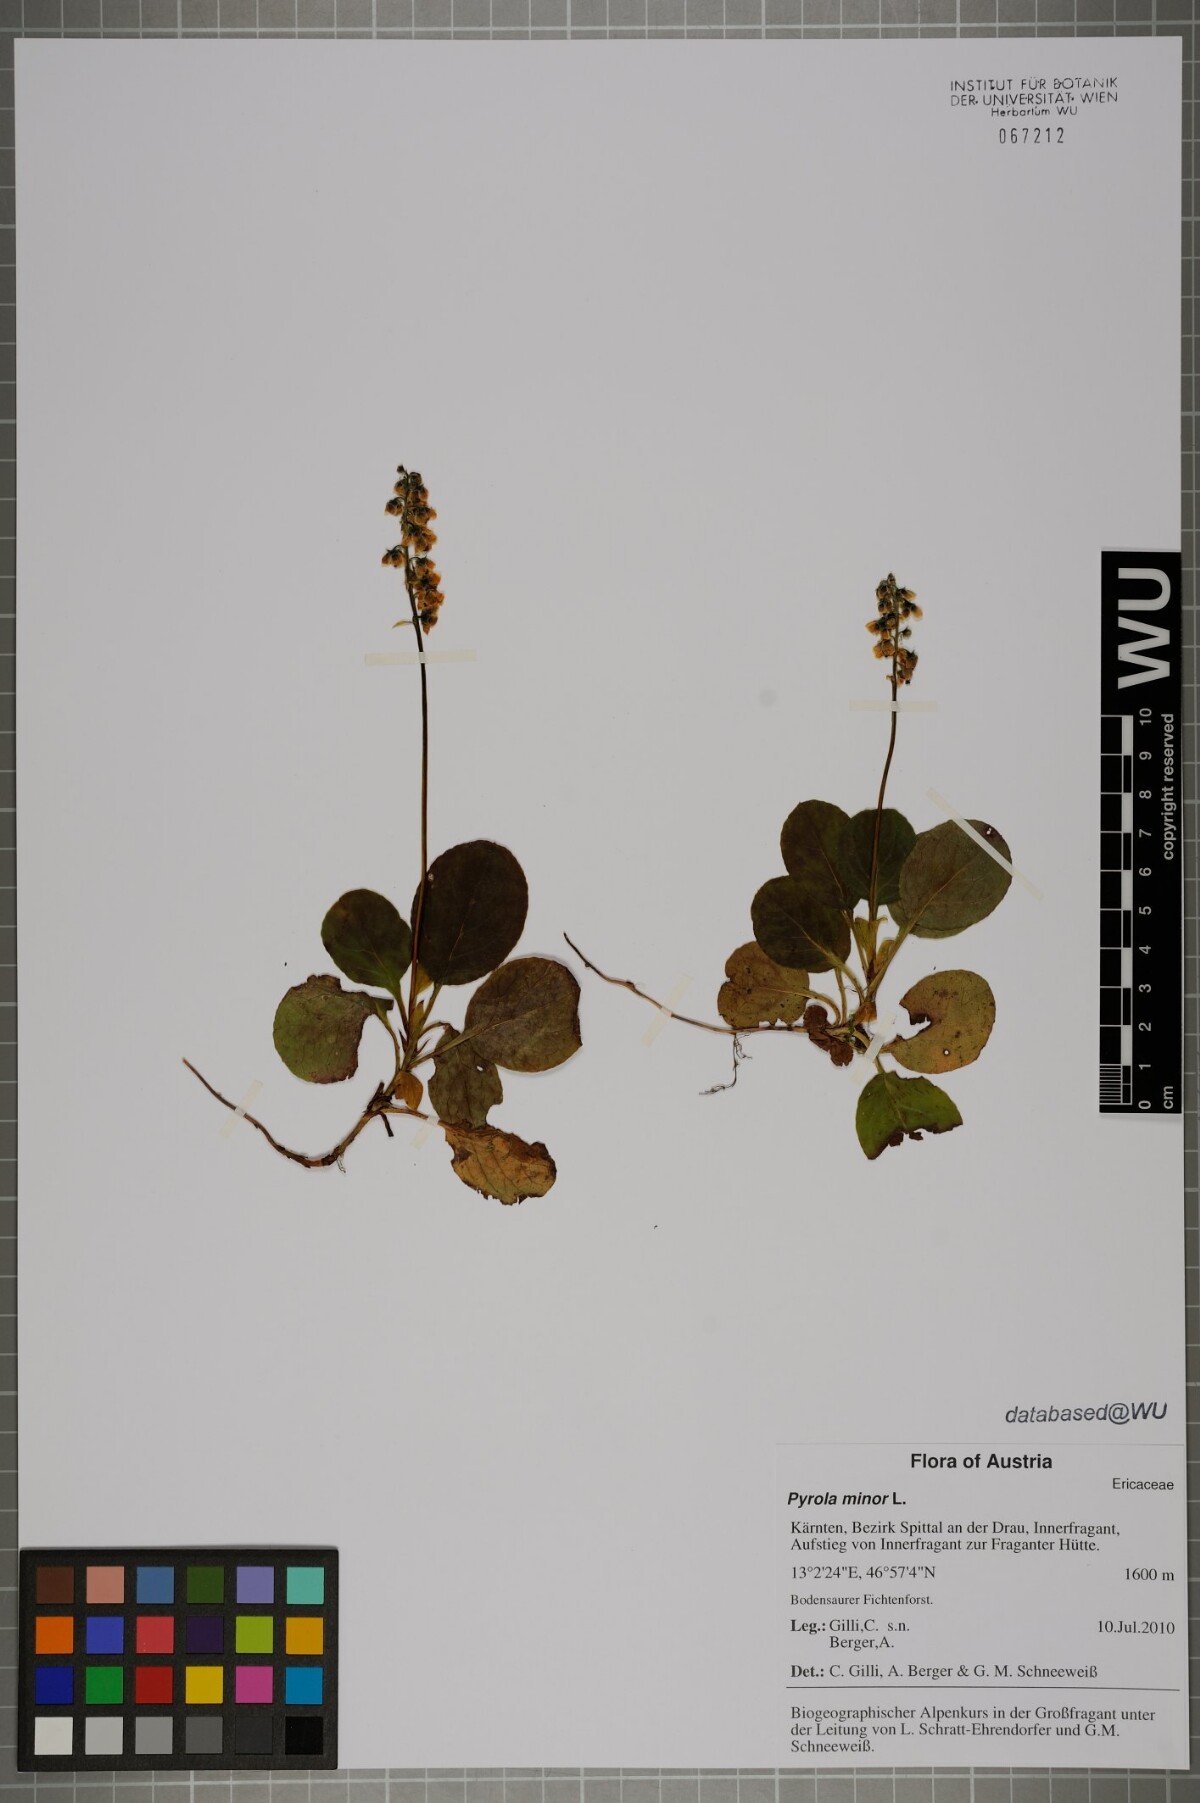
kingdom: Plantae
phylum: Tracheophyta
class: Magnoliopsida
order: Ericales
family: Ericaceae
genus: Pyrola
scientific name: Pyrola minor
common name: Common wintergreen
